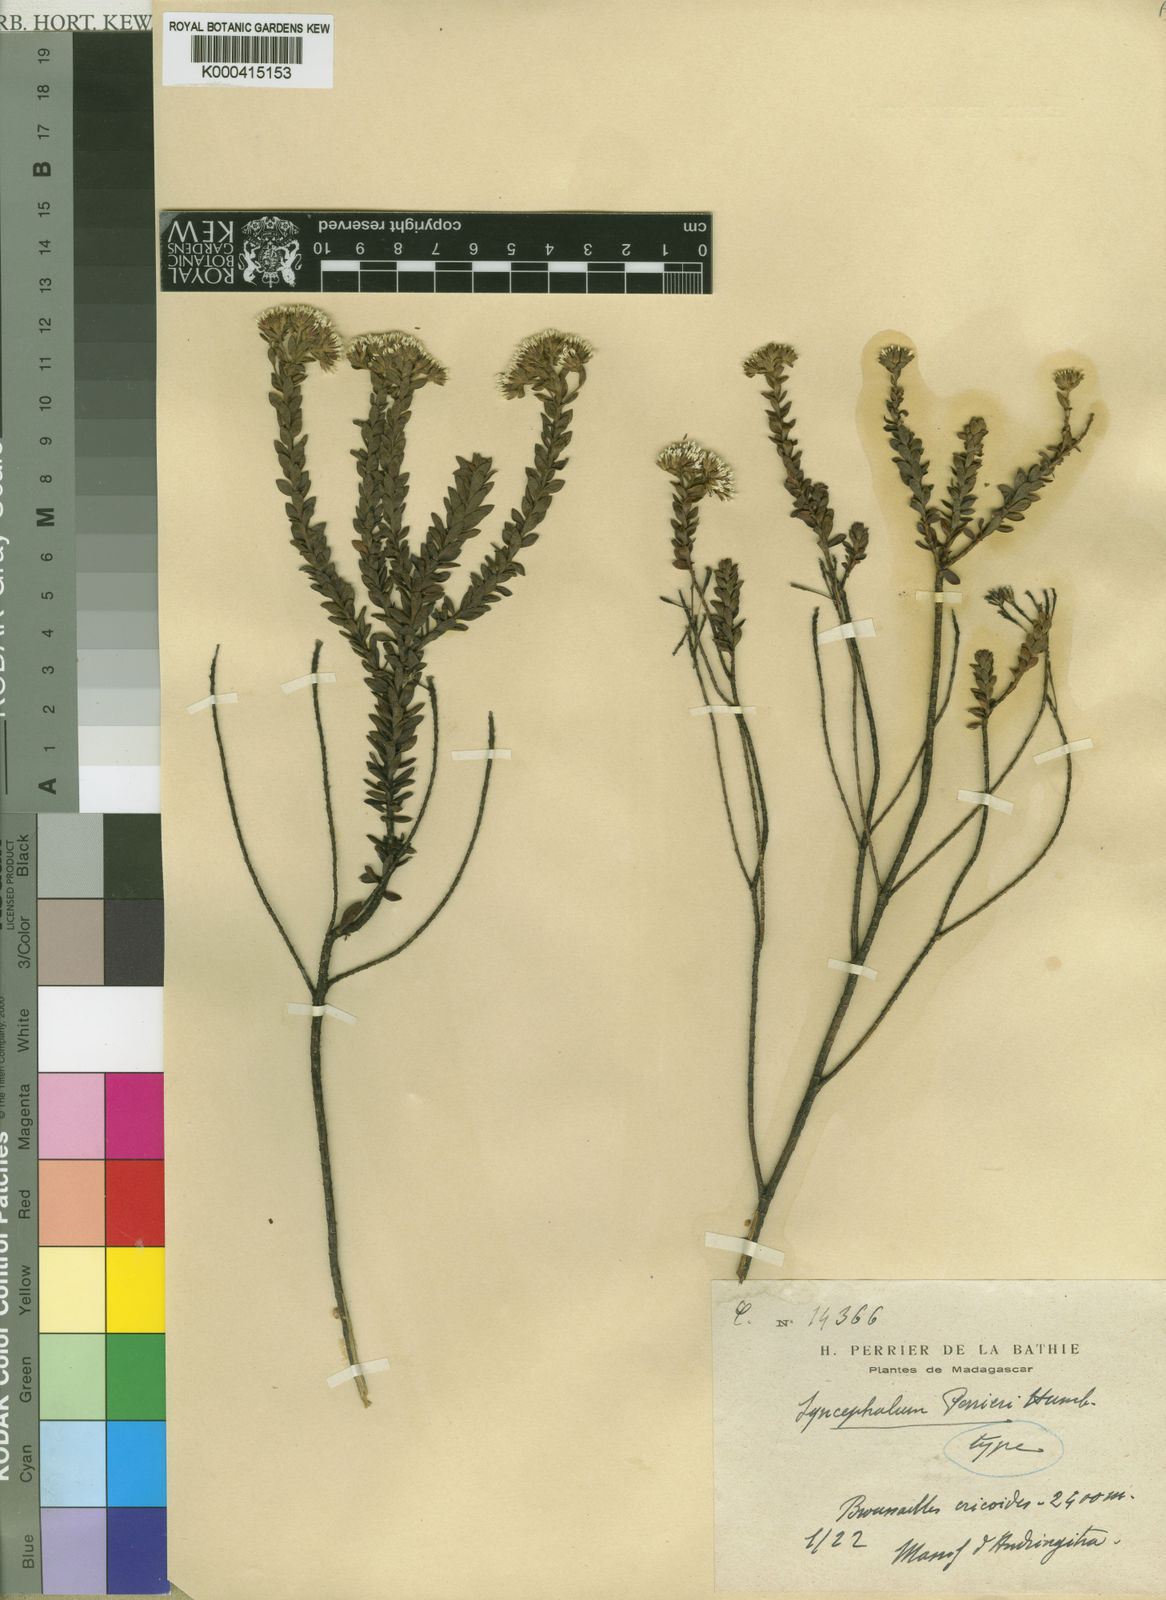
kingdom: Plantae
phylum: Tracheophyta
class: Magnoliopsida
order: Asterales
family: Asteraceae
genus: Syncephalum
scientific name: Syncephalum arbutifolium
